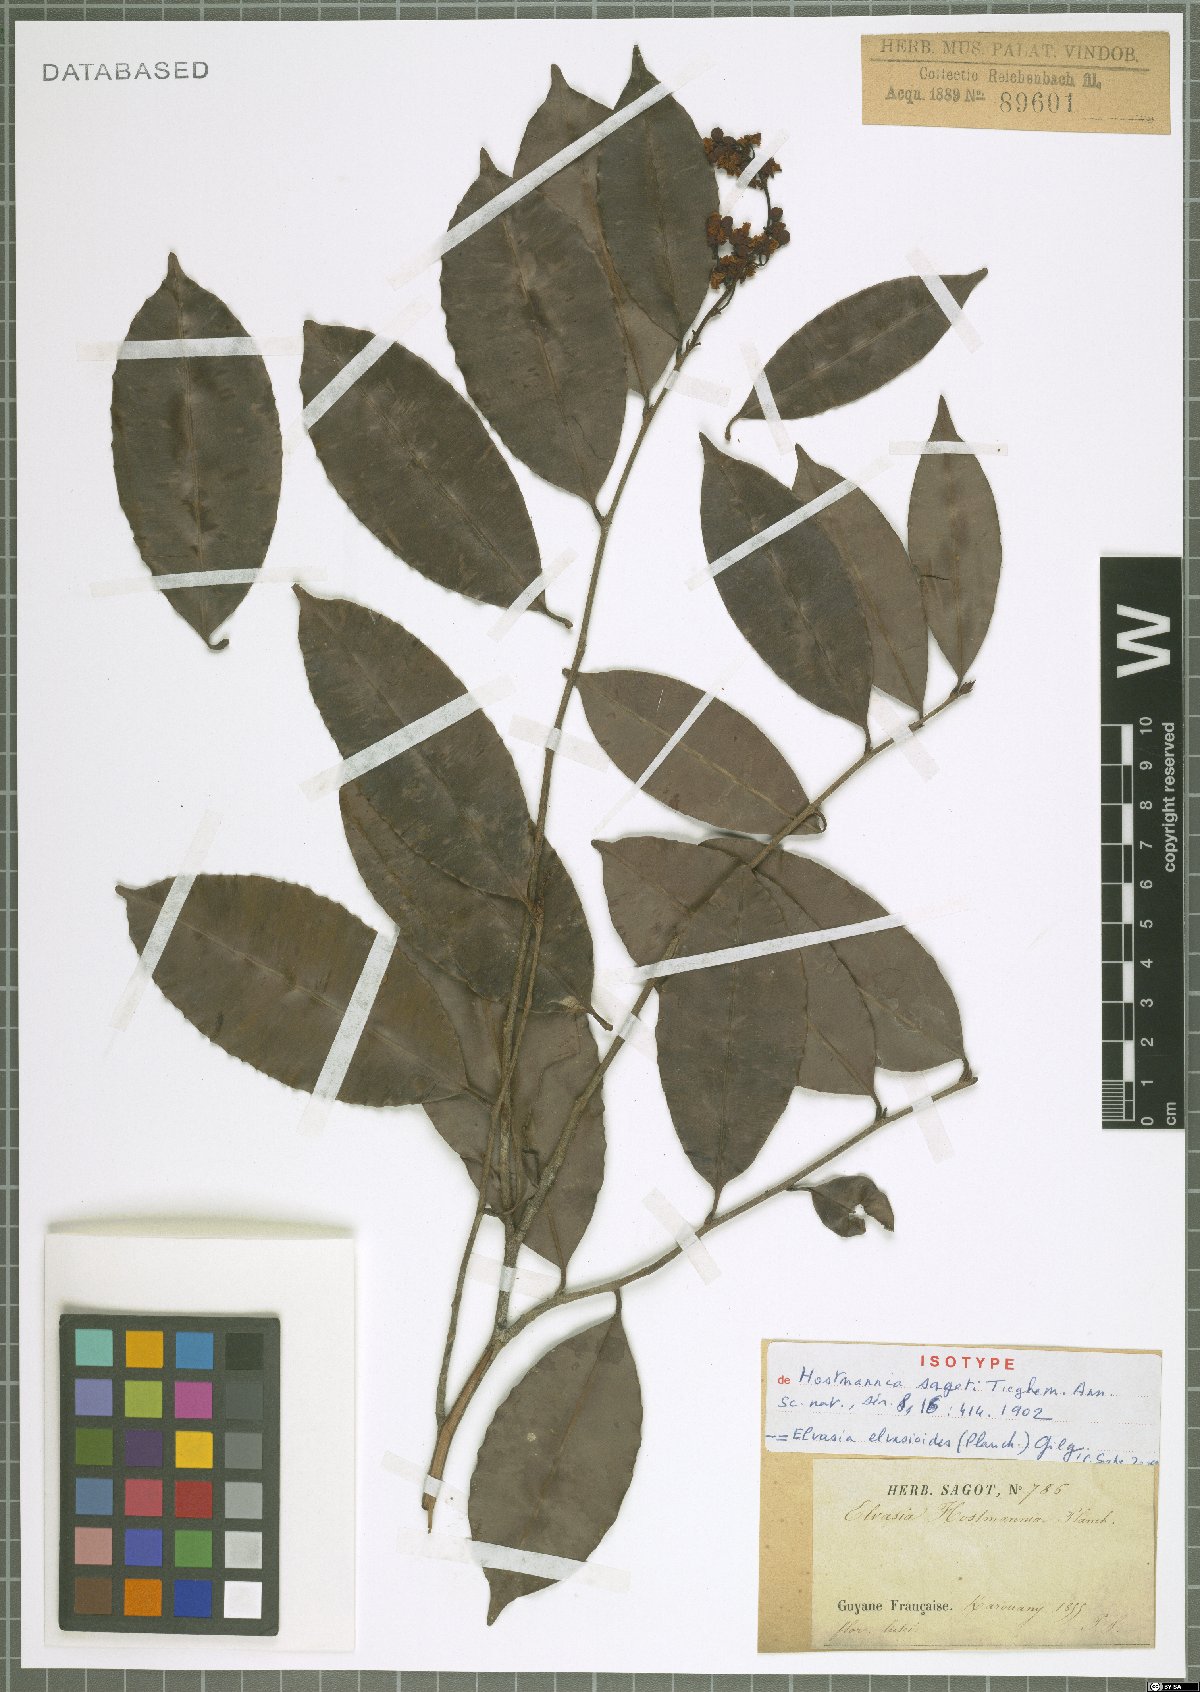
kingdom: Plantae
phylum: Tracheophyta
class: Magnoliopsida
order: Malpighiales
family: Ochnaceae
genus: Elvasia
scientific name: Elvasia elvasioides
